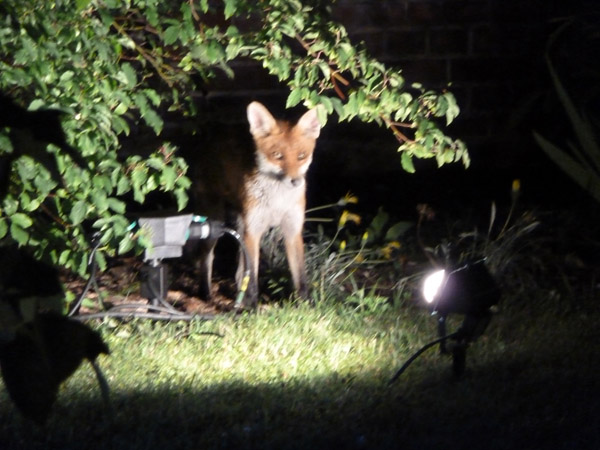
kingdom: Animalia
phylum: Chordata
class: Mammalia
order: Carnivora
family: Canidae
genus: Vulpes
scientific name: Vulpes vulpes
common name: Red fox
